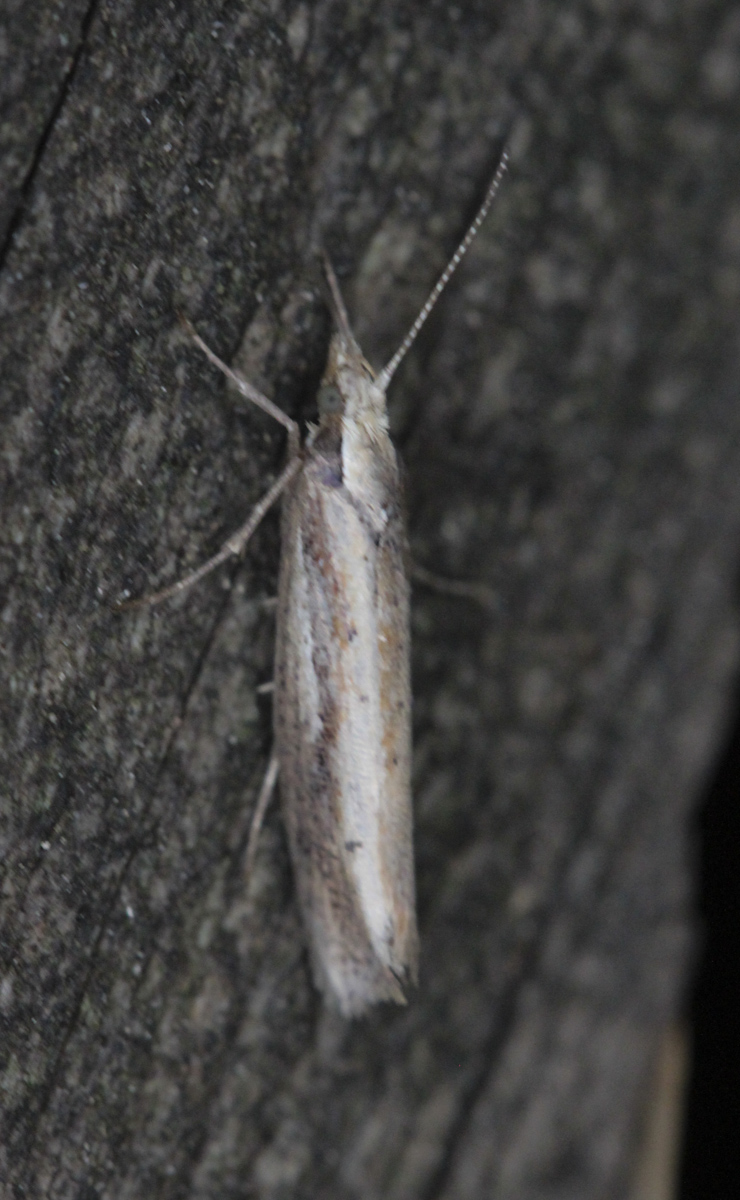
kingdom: Animalia
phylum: Arthropoda
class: Insecta
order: Lepidoptera
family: Ypsolophidae
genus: Ypsolopha
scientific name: Ypsolopha parenthesella
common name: White-shouldered smudge
